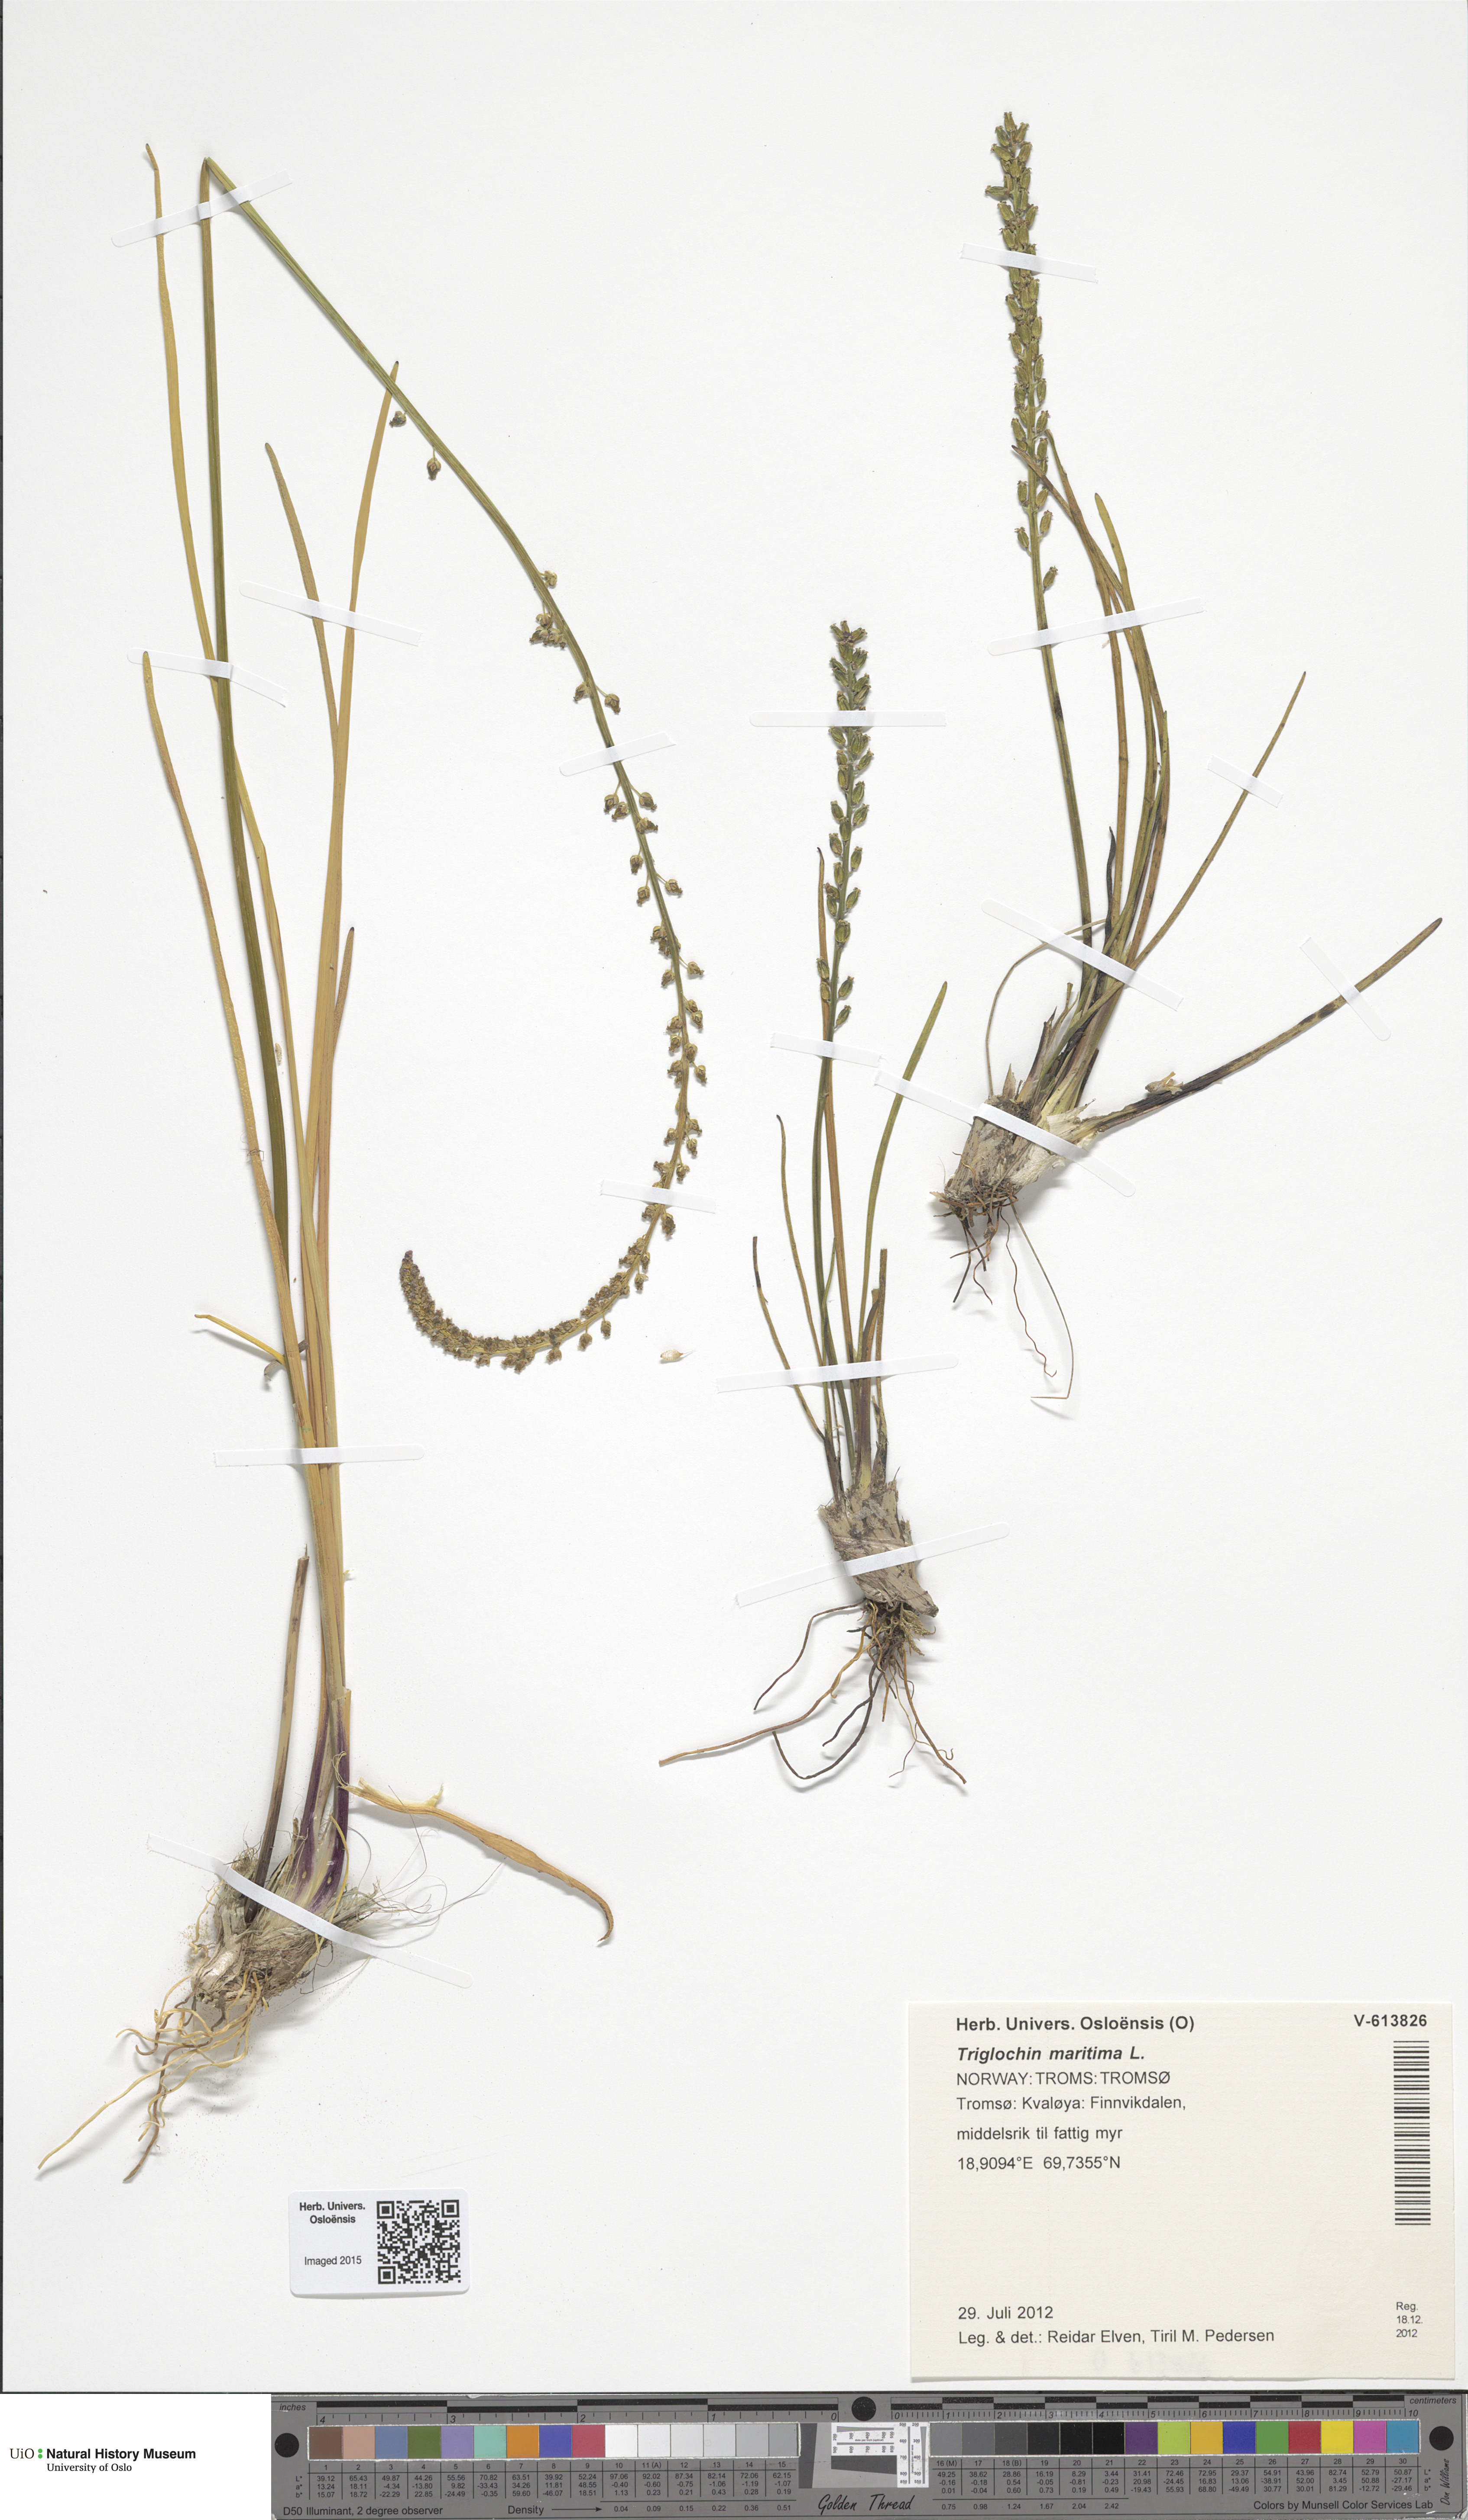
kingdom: Plantae
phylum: Tracheophyta
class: Liliopsida
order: Alismatales
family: Juncaginaceae
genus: Triglochin
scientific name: Triglochin maritima
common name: Sea arrowgrass
